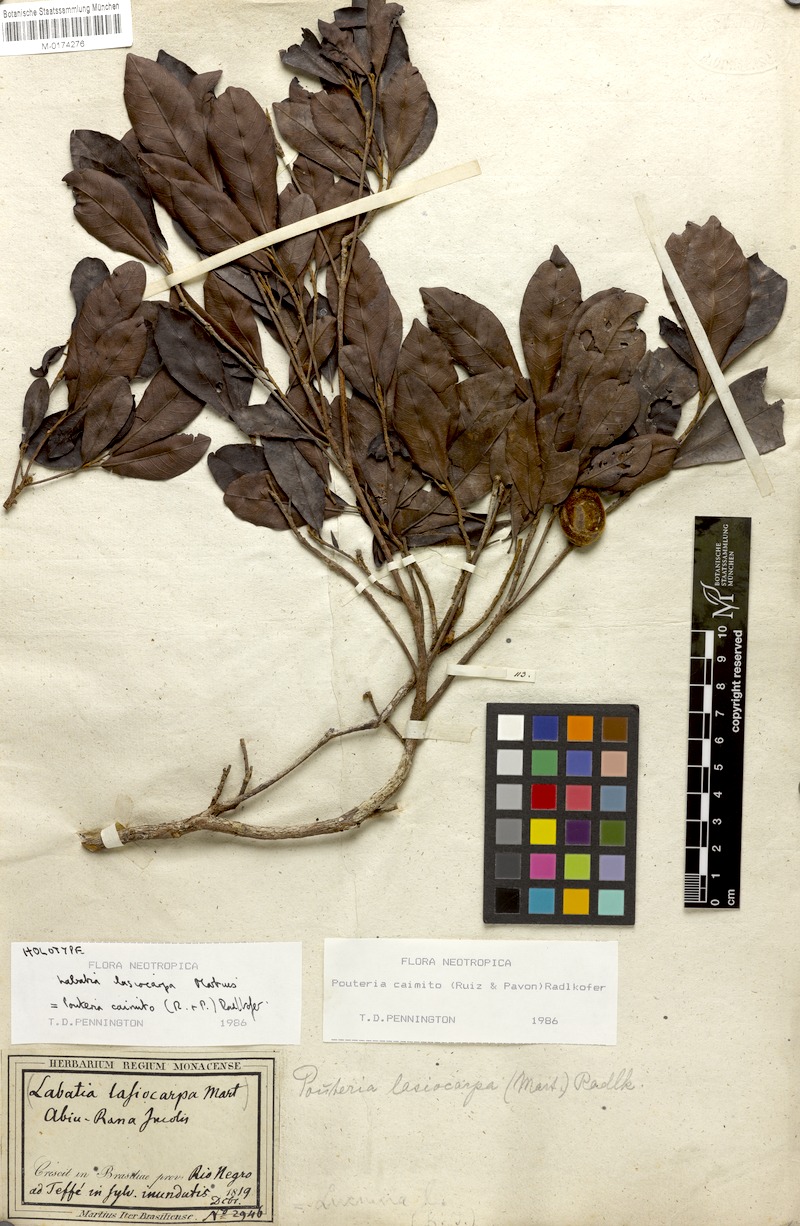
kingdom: Plantae
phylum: Tracheophyta
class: Magnoliopsida
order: Ericales
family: Sapotaceae
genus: Pouteria
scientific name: Pouteria caimito
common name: Caimito
